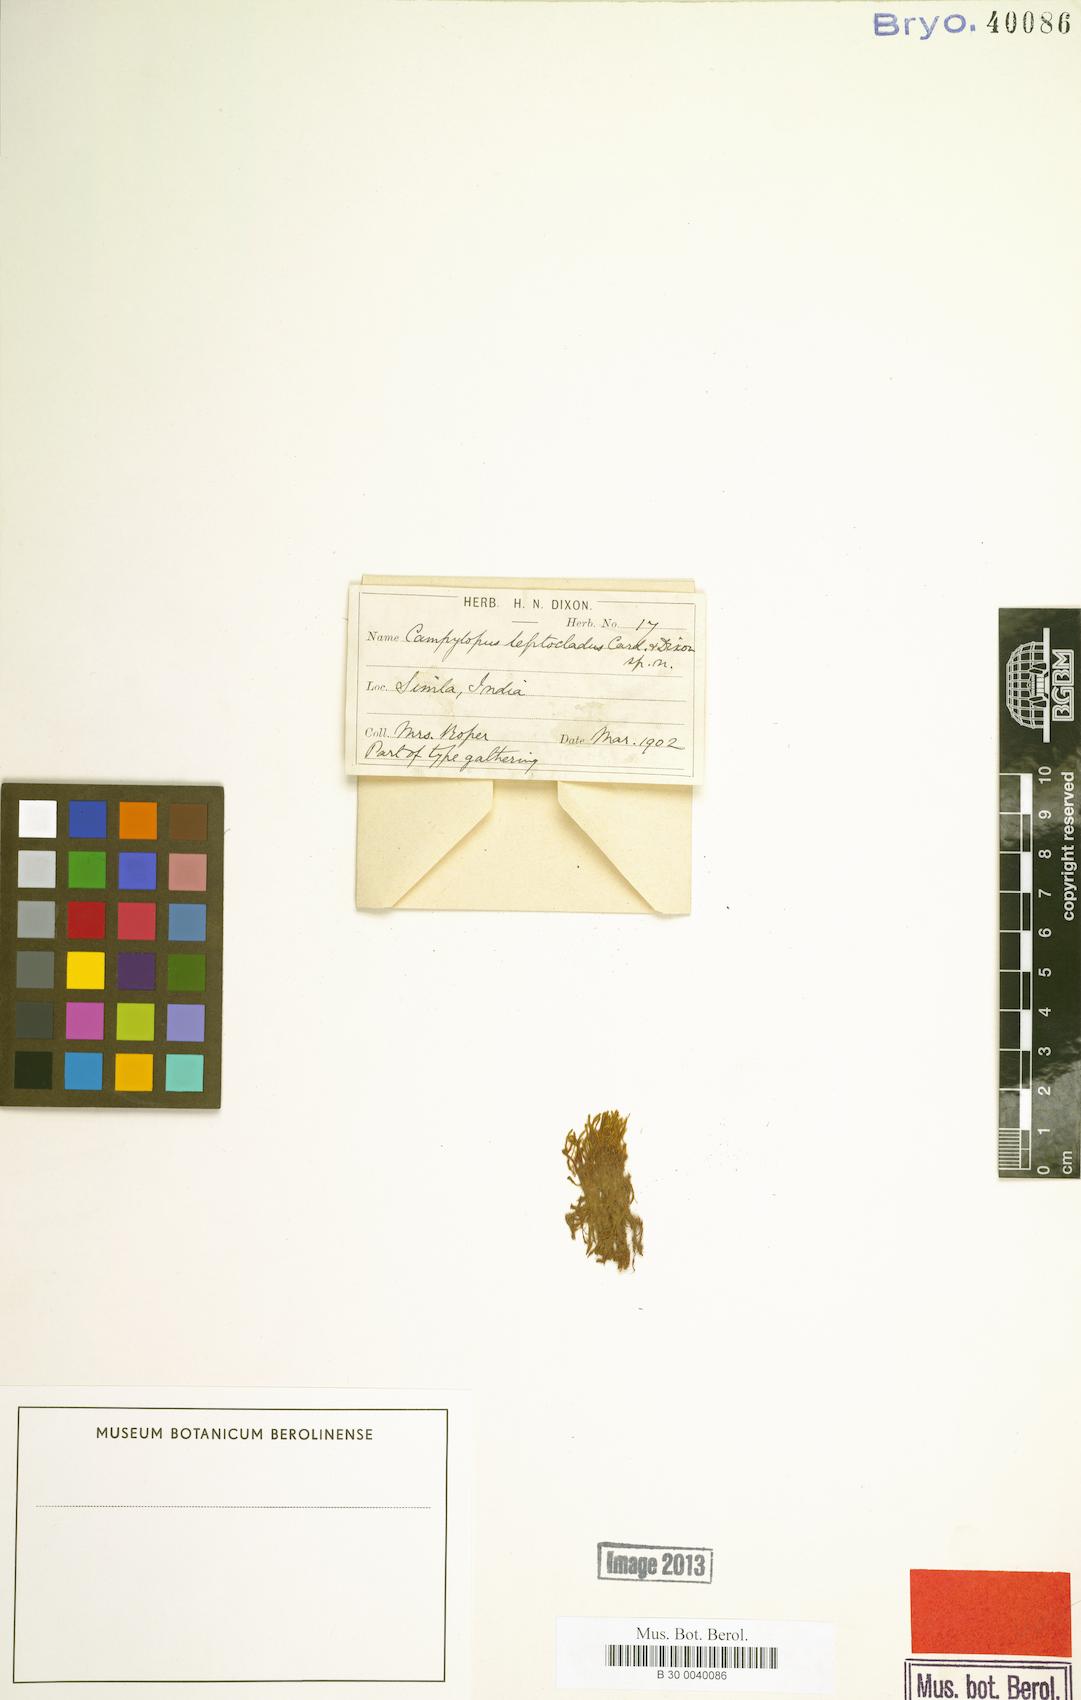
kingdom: Plantae
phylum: Bryophyta
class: Bryopsida
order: Dicranales
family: Dicranaceae
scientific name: Dicranaceae
